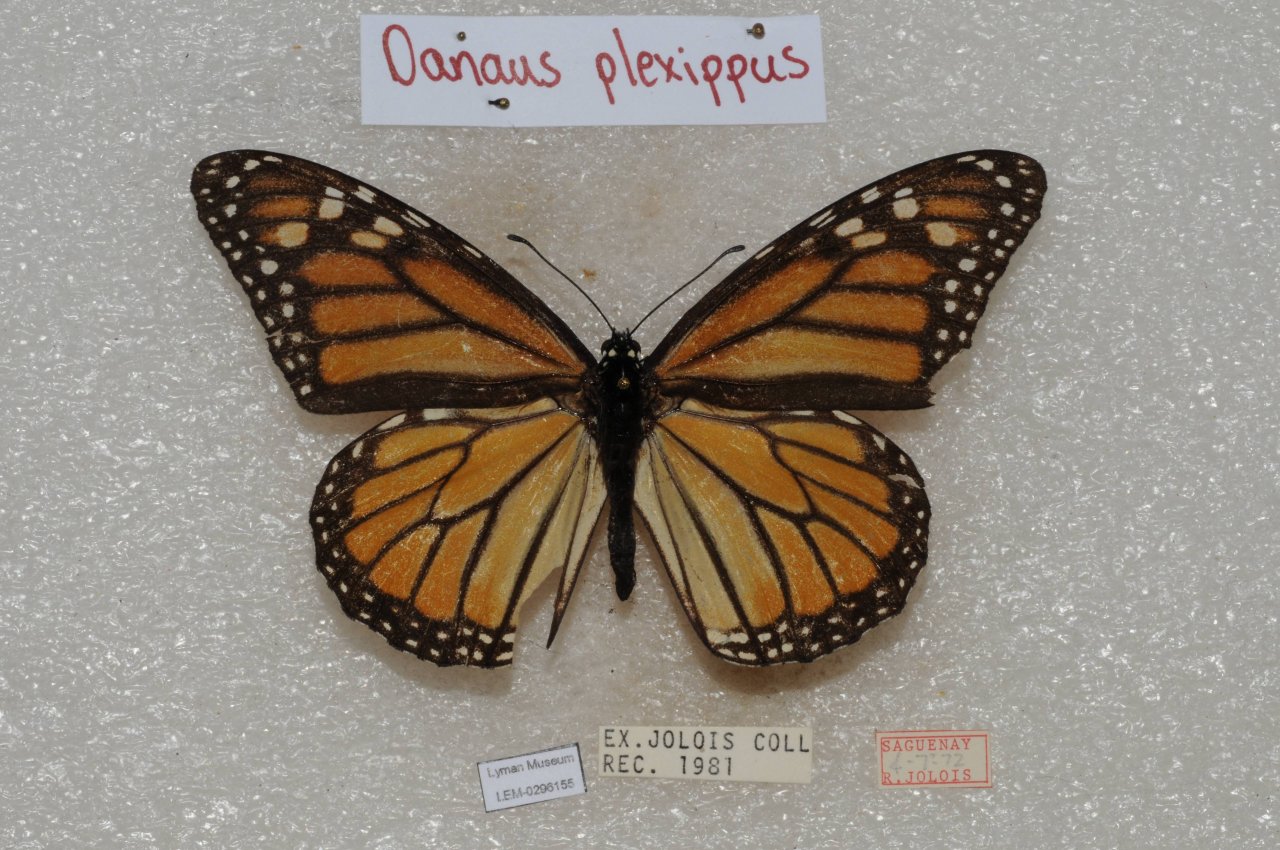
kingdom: Animalia
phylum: Arthropoda
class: Insecta
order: Lepidoptera
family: Nymphalidae
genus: Danaus
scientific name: Danaus plexippus
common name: Monarch
